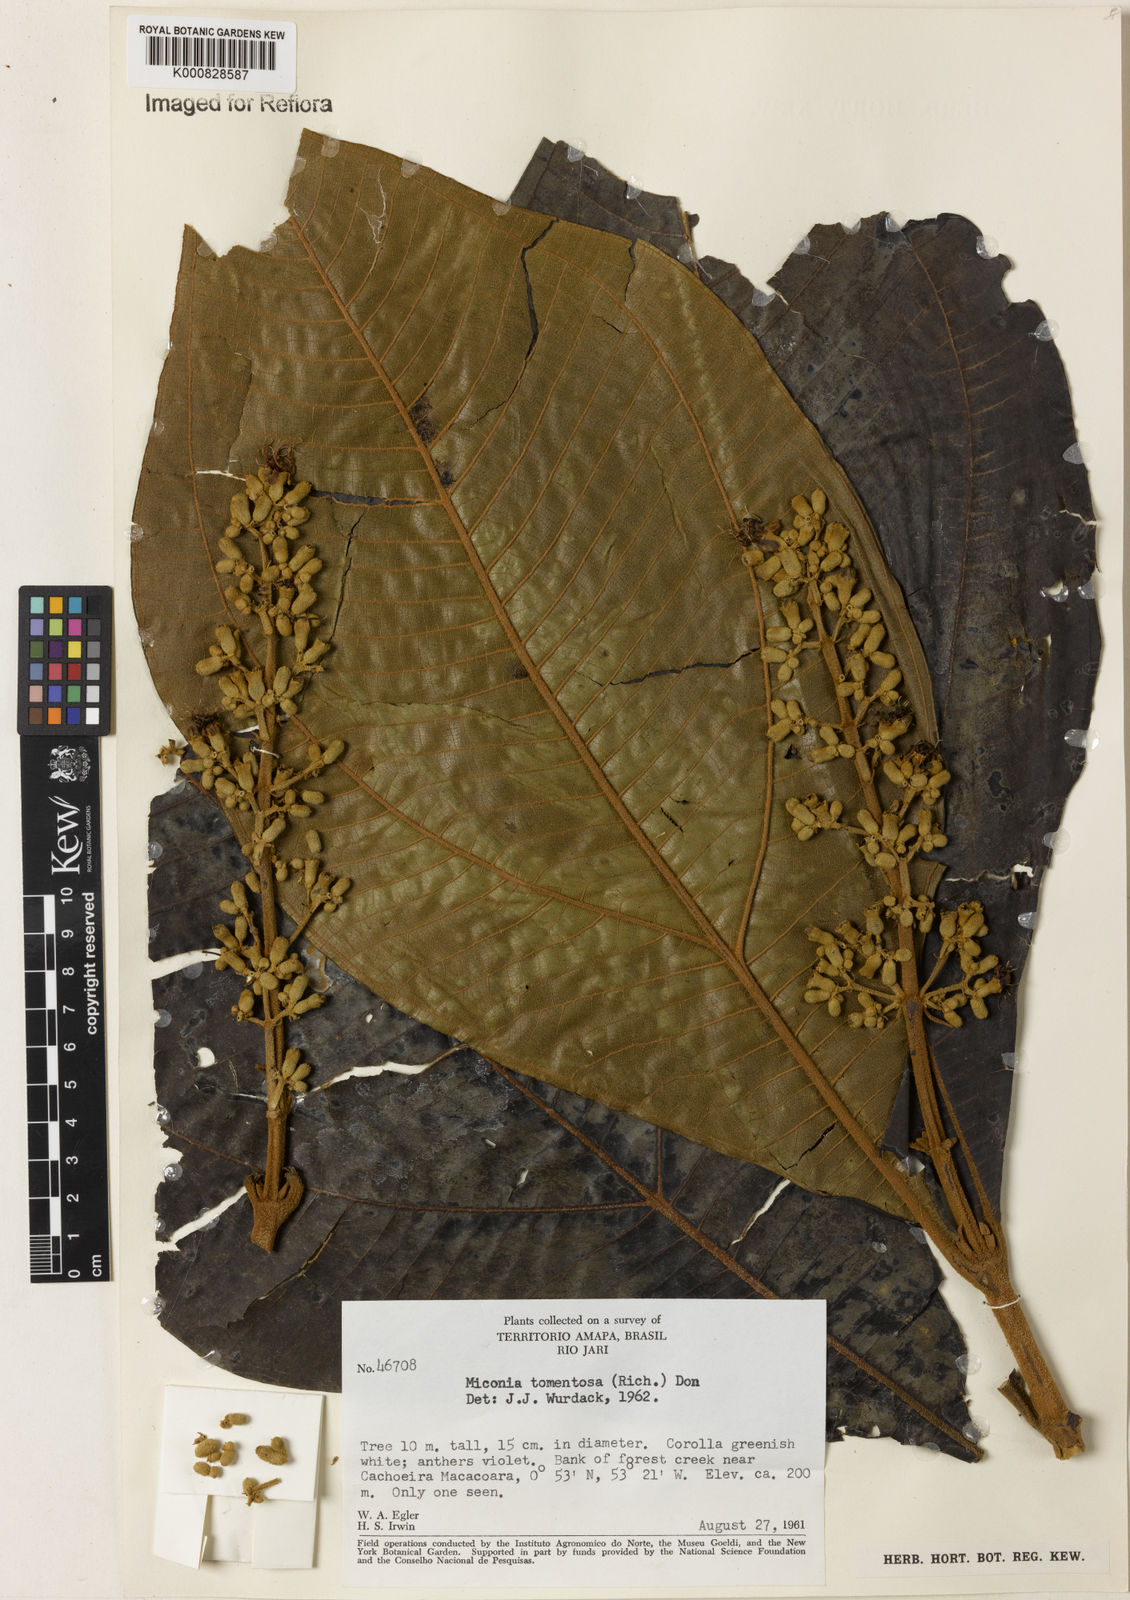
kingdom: Plantae
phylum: Tracheophyta
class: Magnoliopsida
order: Myrtales
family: Melastomataceae
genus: Miconia
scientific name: Miconia tomentosa
